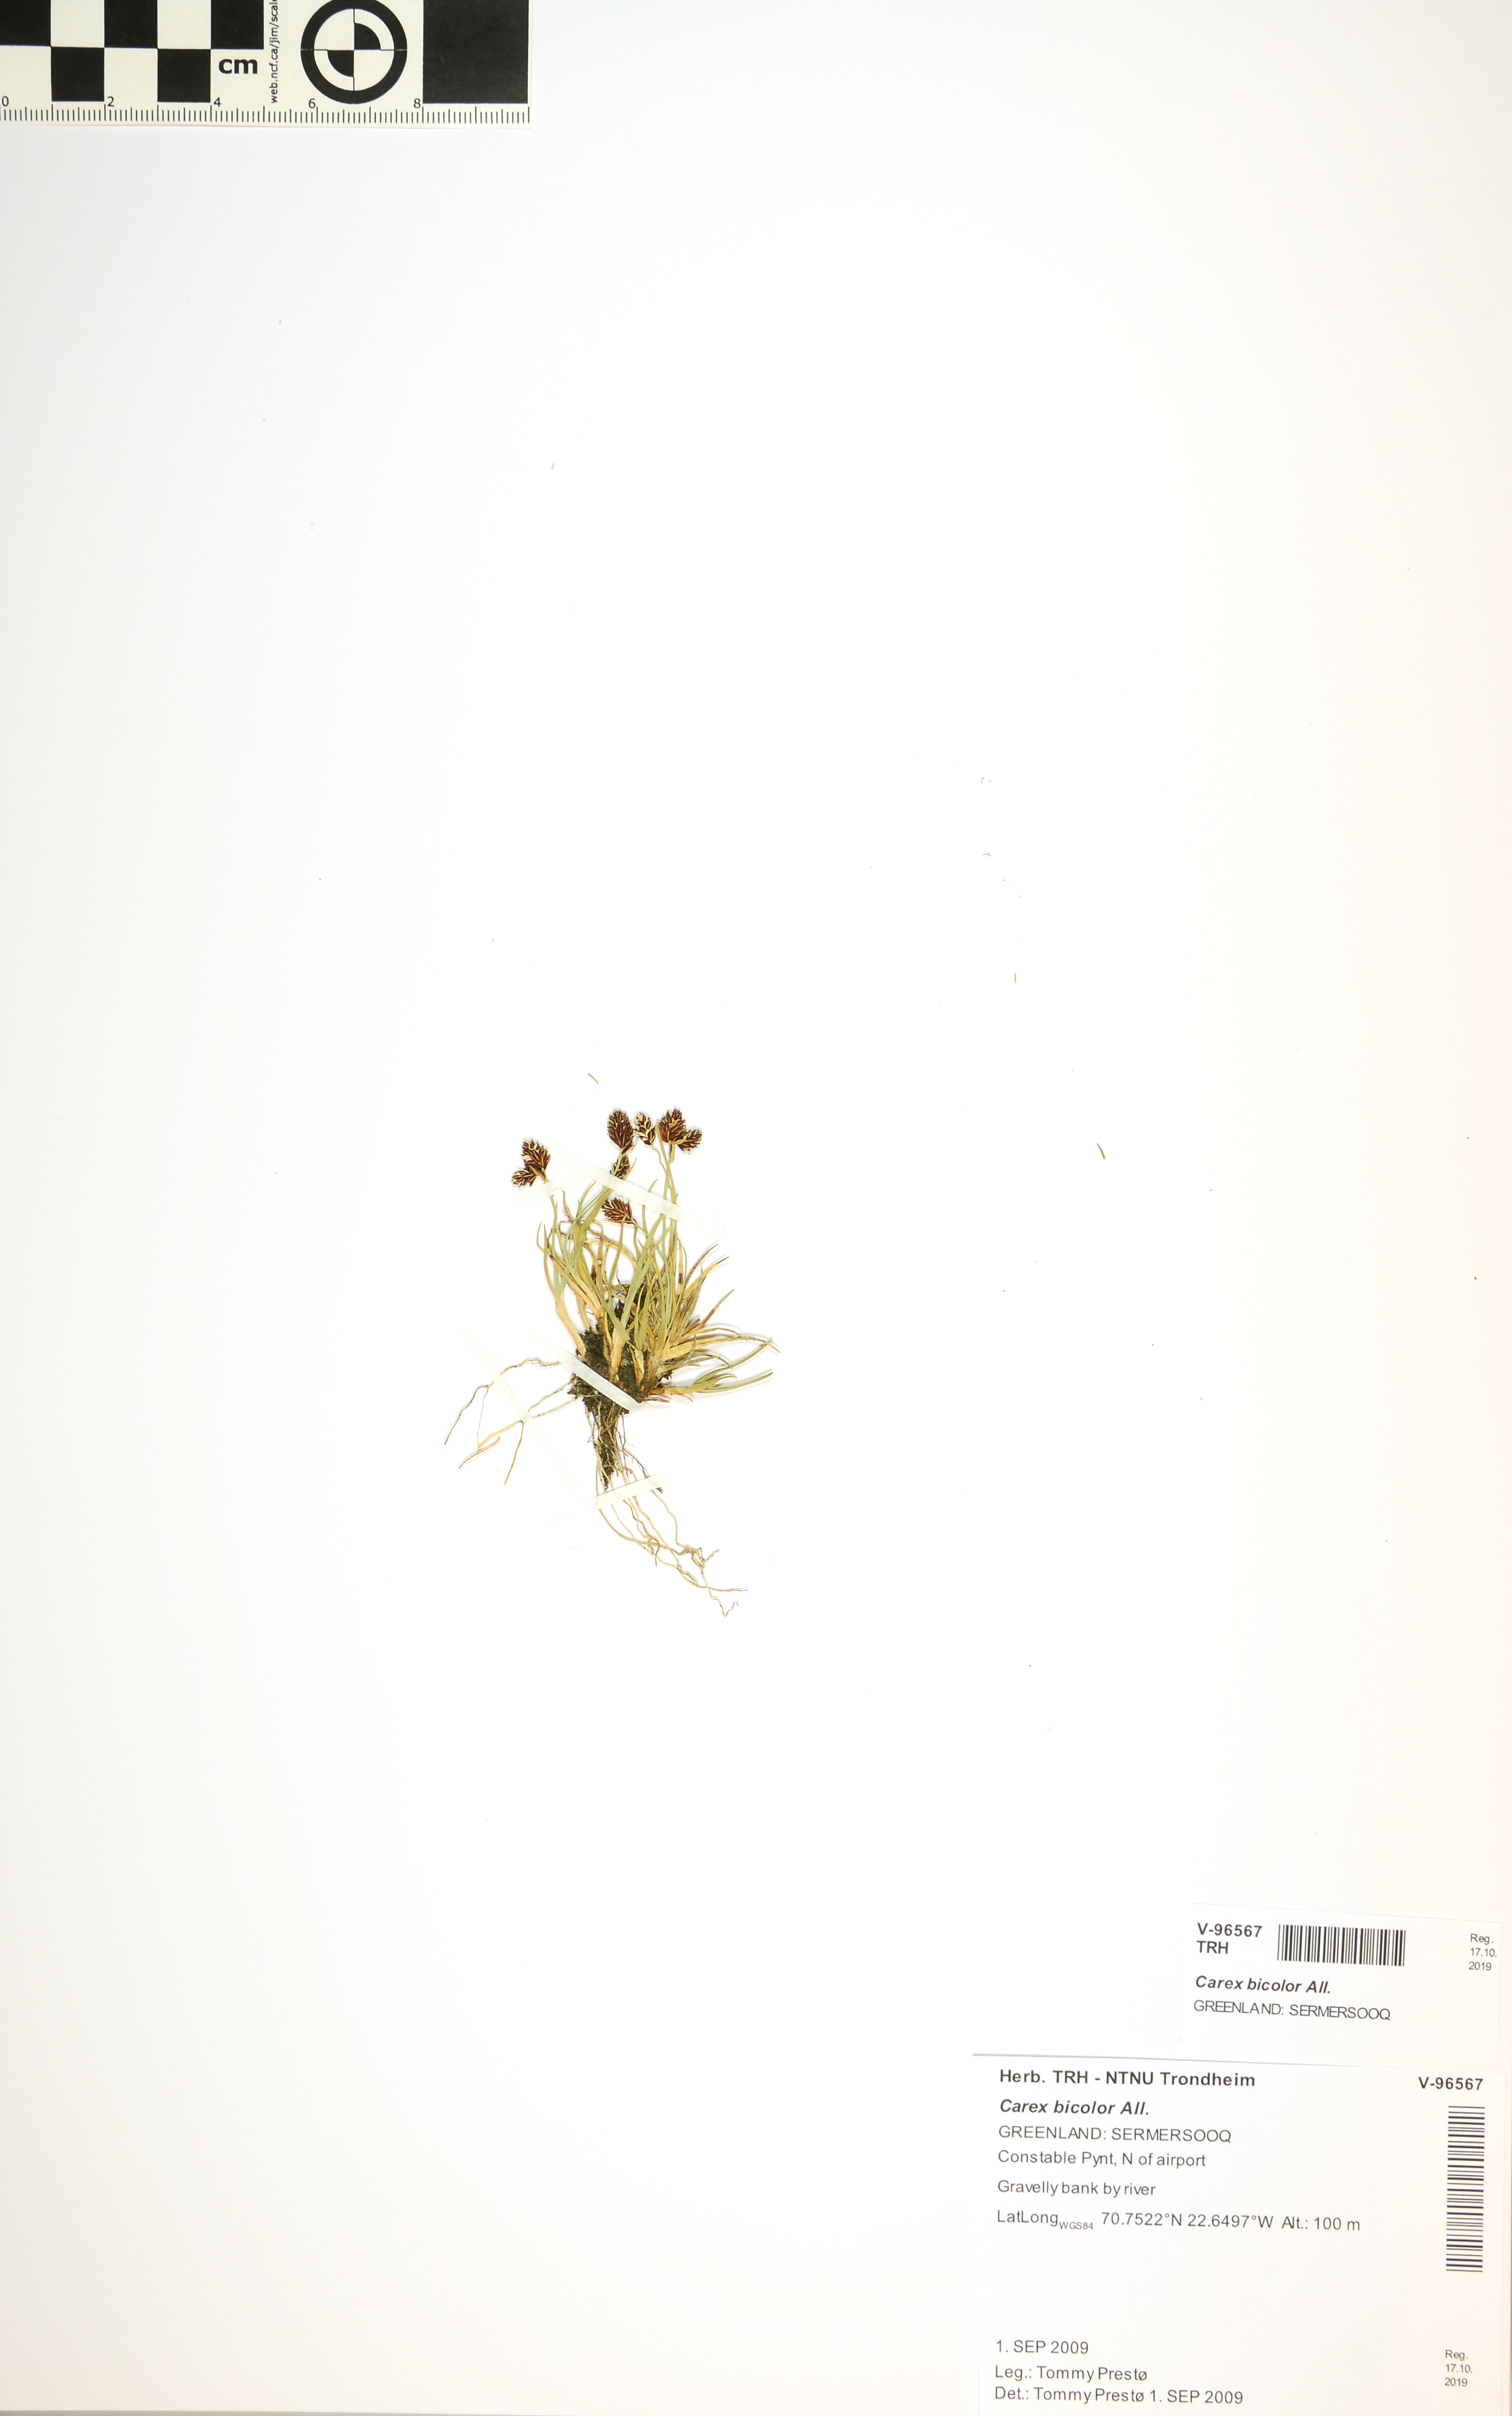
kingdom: Plantae
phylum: Tracheophyta
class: Liliopsida
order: Poales
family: Cyperaceae
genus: Carex
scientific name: Carex bicolor
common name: Bicoloured sedge
